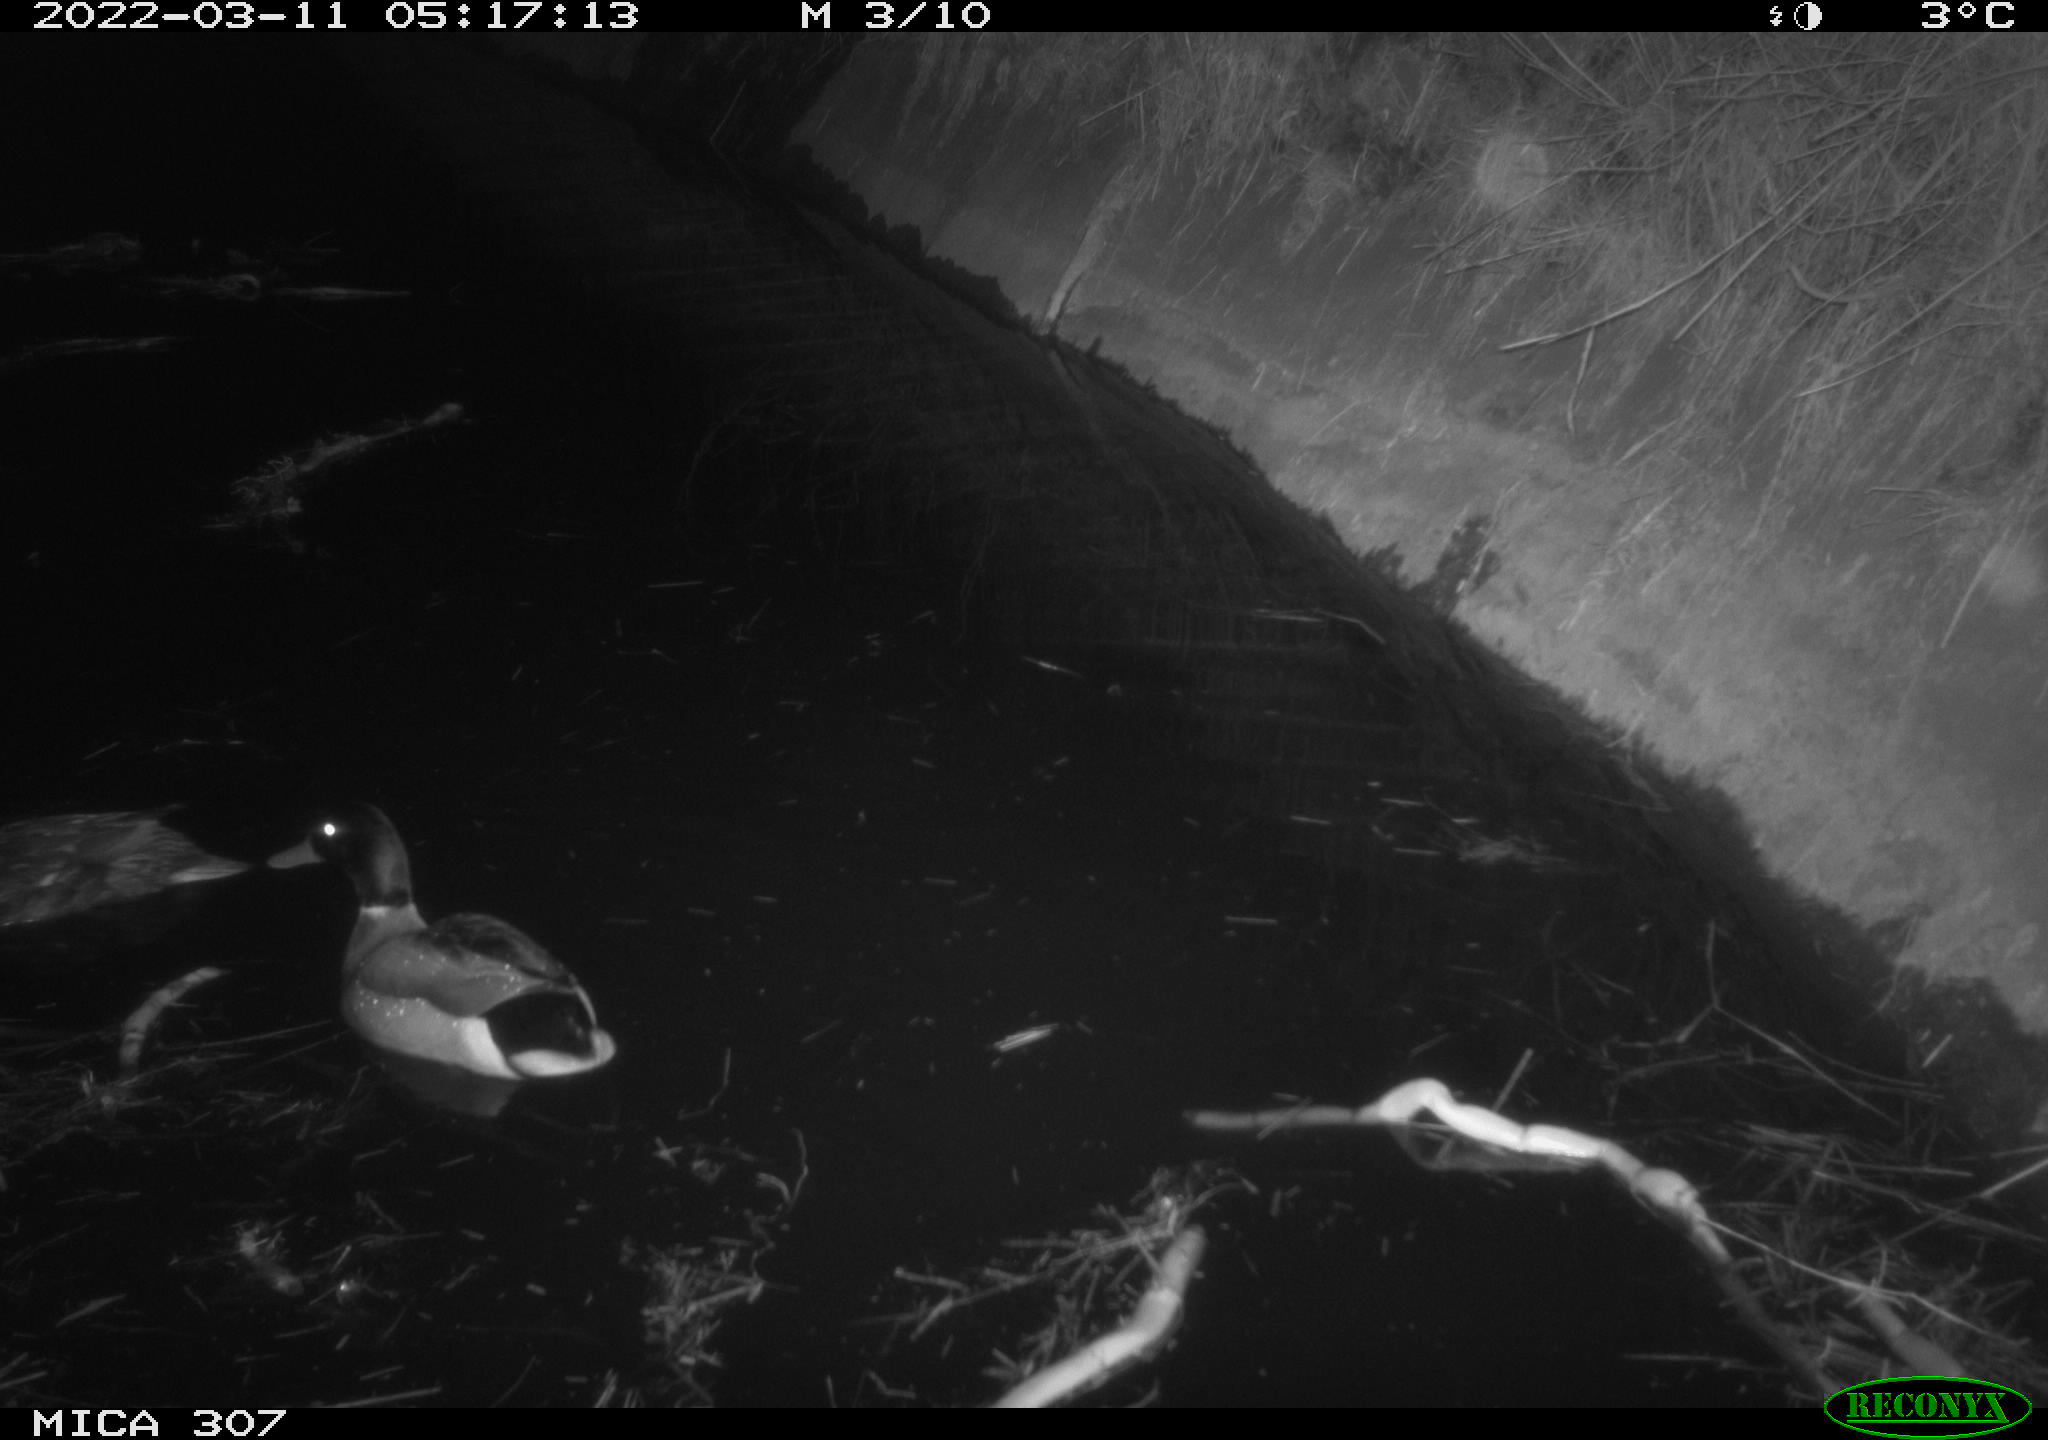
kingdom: Animalia
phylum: Chordata
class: Aves
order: Anseriformes
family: Anatidae
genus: Anas
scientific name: Anas platyrhynchos
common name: Mallard
